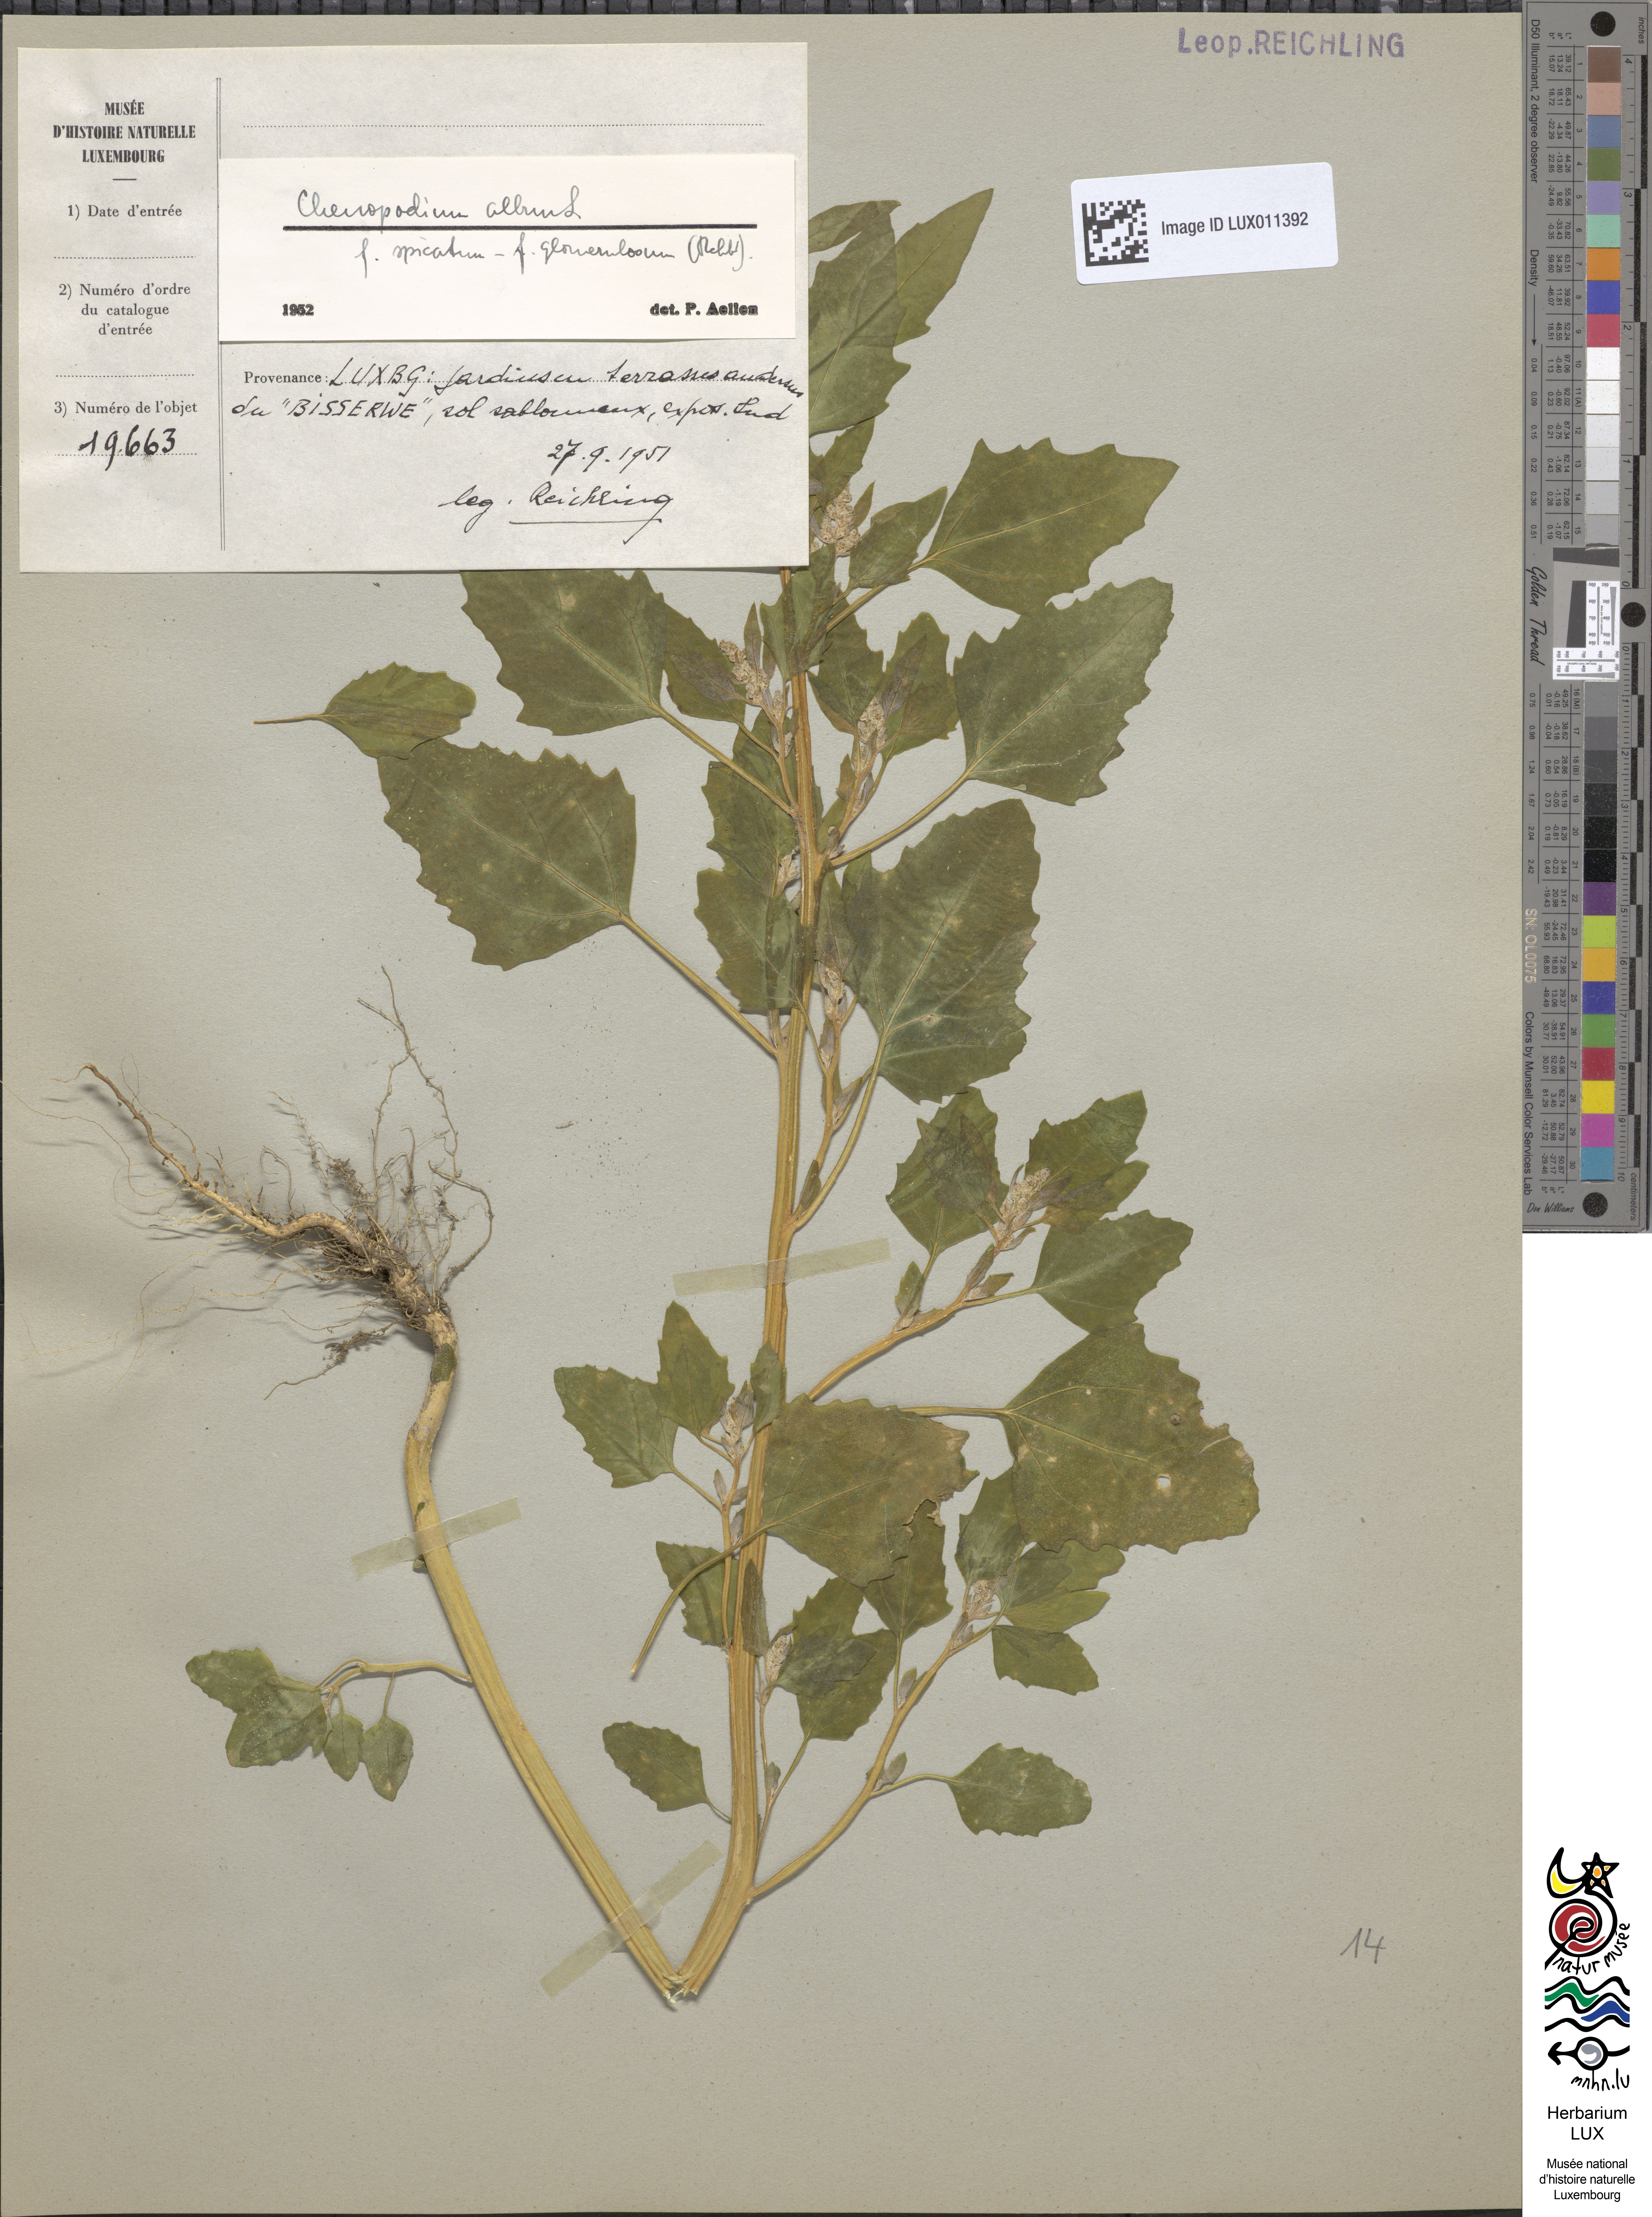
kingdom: Plantae
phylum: Tracheophyta
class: Magnoliopsida
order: Caryophyllales
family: Amaranthaceae
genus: Chenopodium
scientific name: Chenopodium album
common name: Fat-hen
